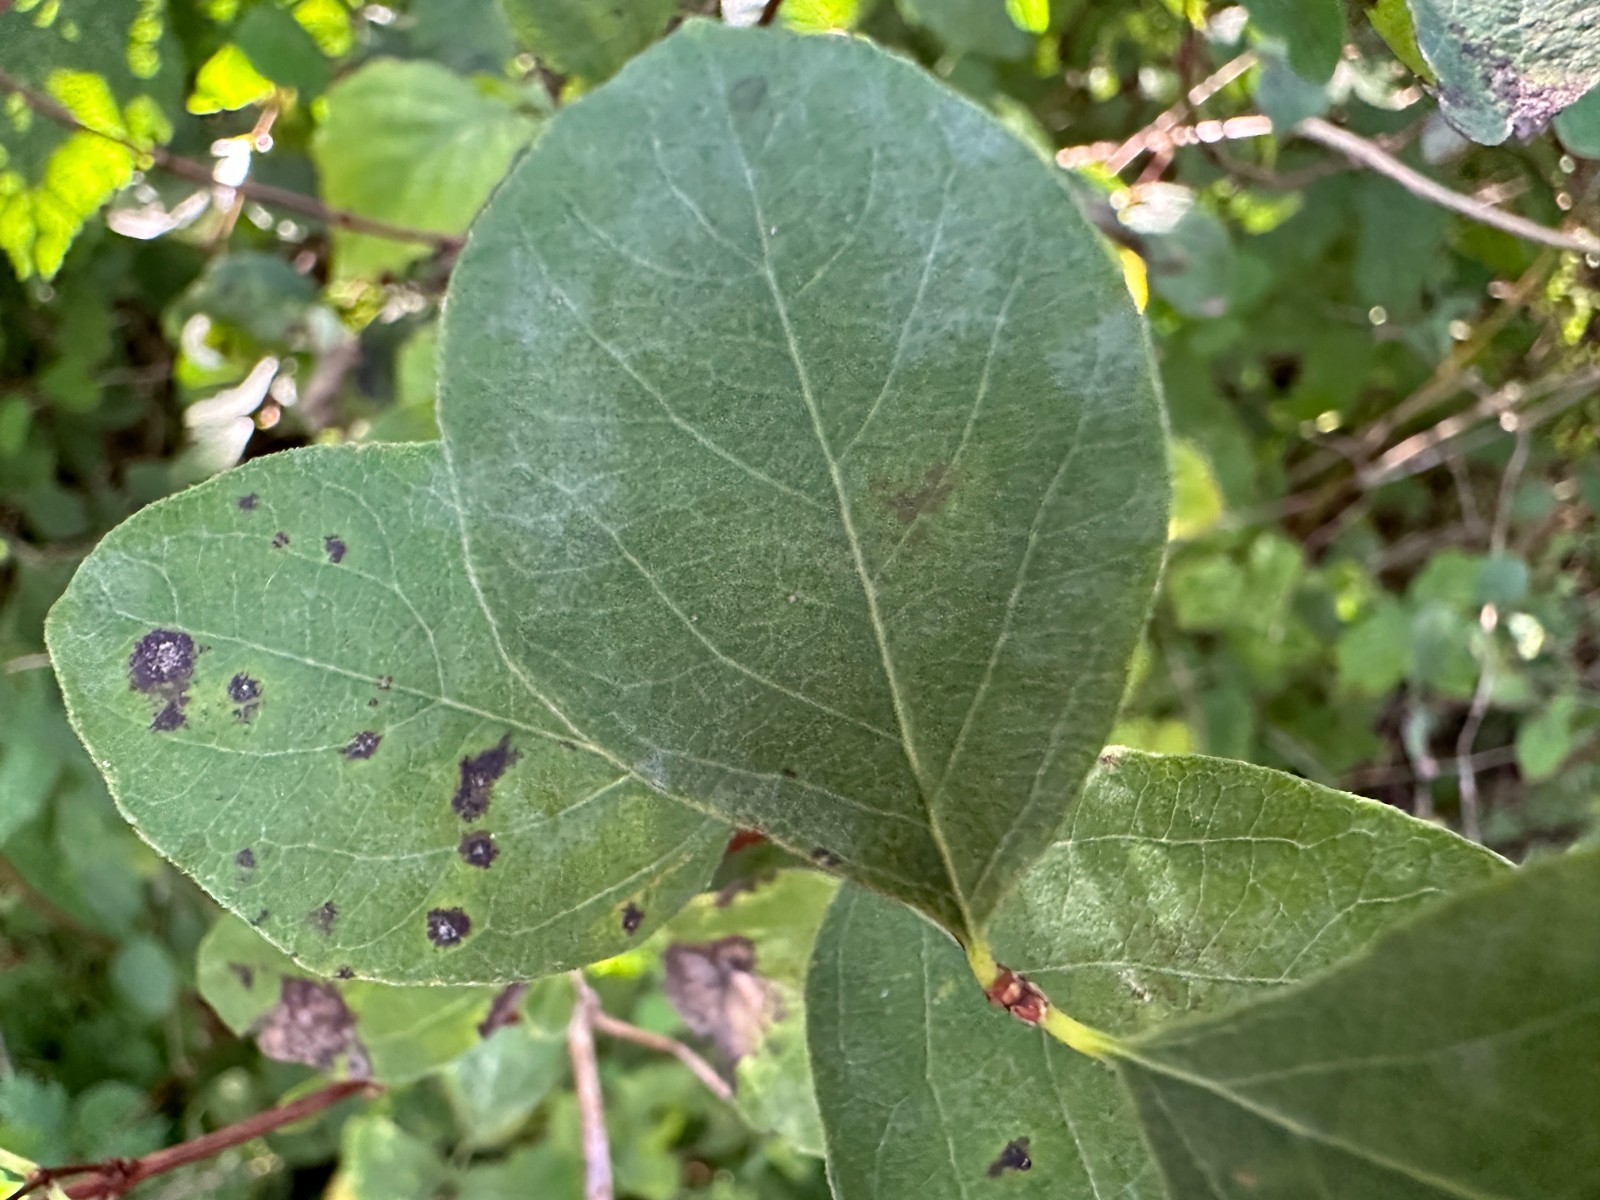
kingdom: Fungi
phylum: Ascomycota
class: Leotiomycetes
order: Helotiales
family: Erysiphaceae
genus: Erysiphe
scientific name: Erysiphe symphoricarpi
